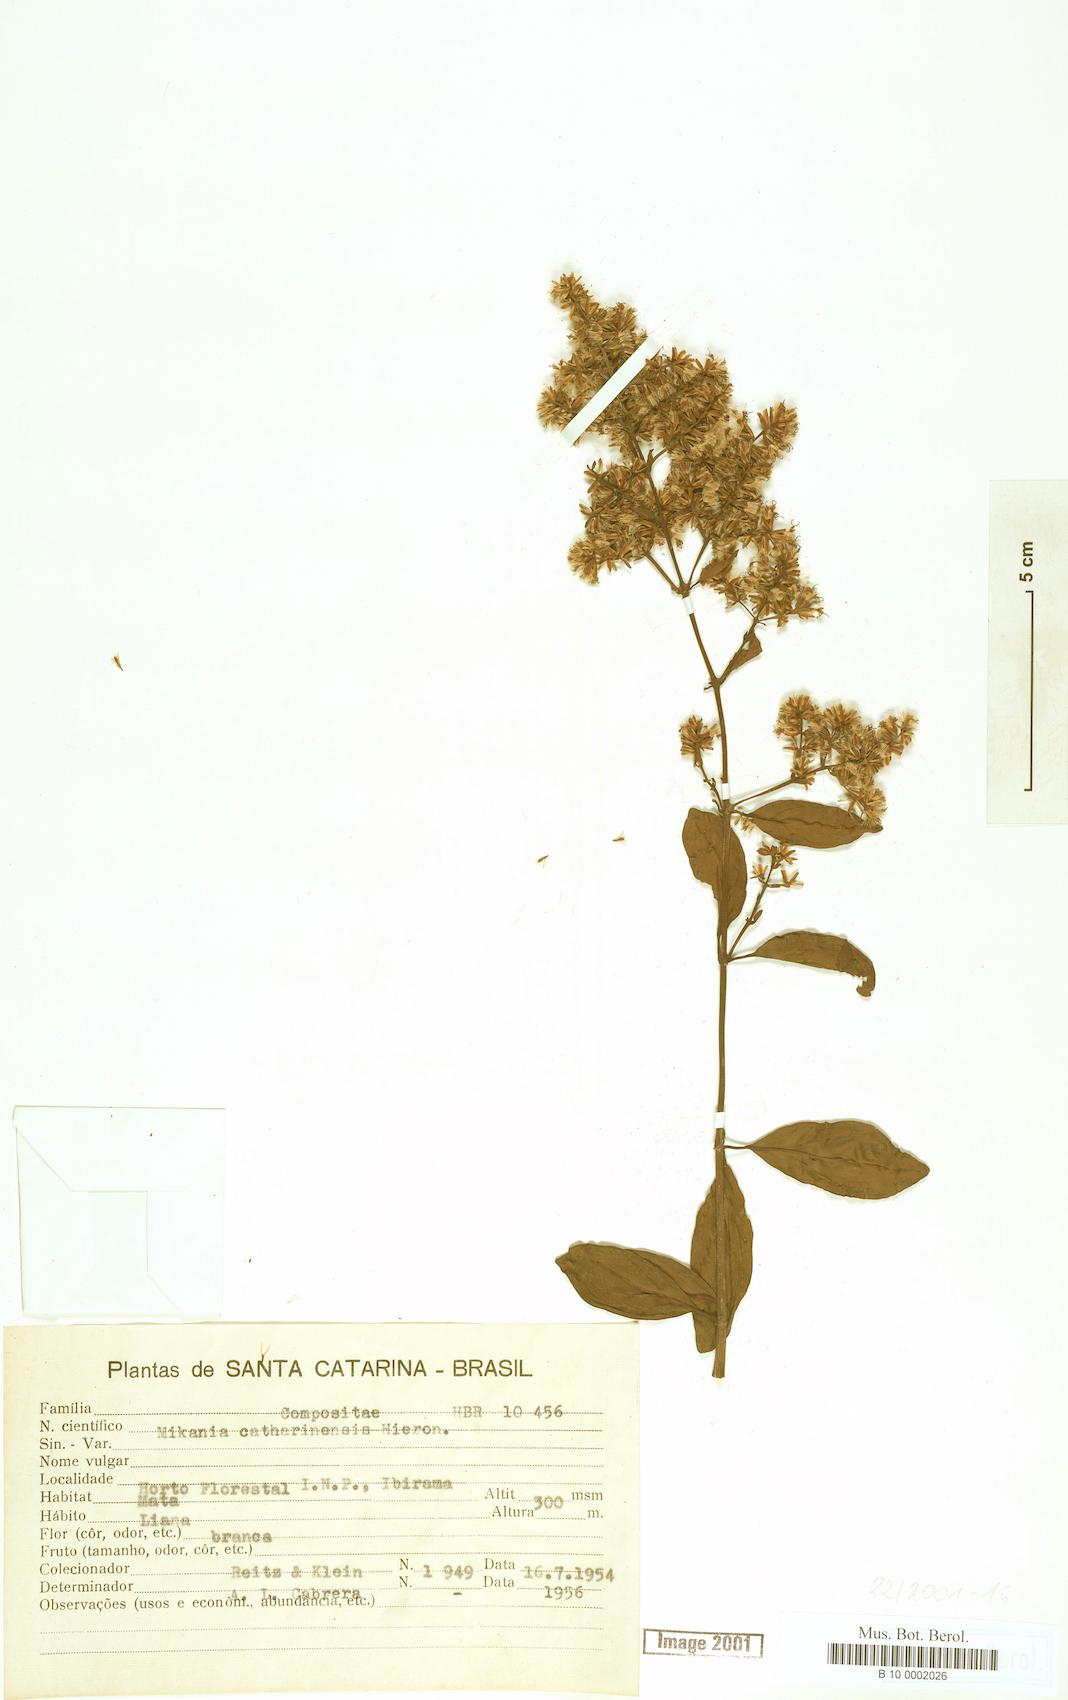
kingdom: Plantae
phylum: Tracheophyta
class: Magnoliopsida
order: Asterales
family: Asteraceae
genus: Mikania
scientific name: Mikania lundiana
